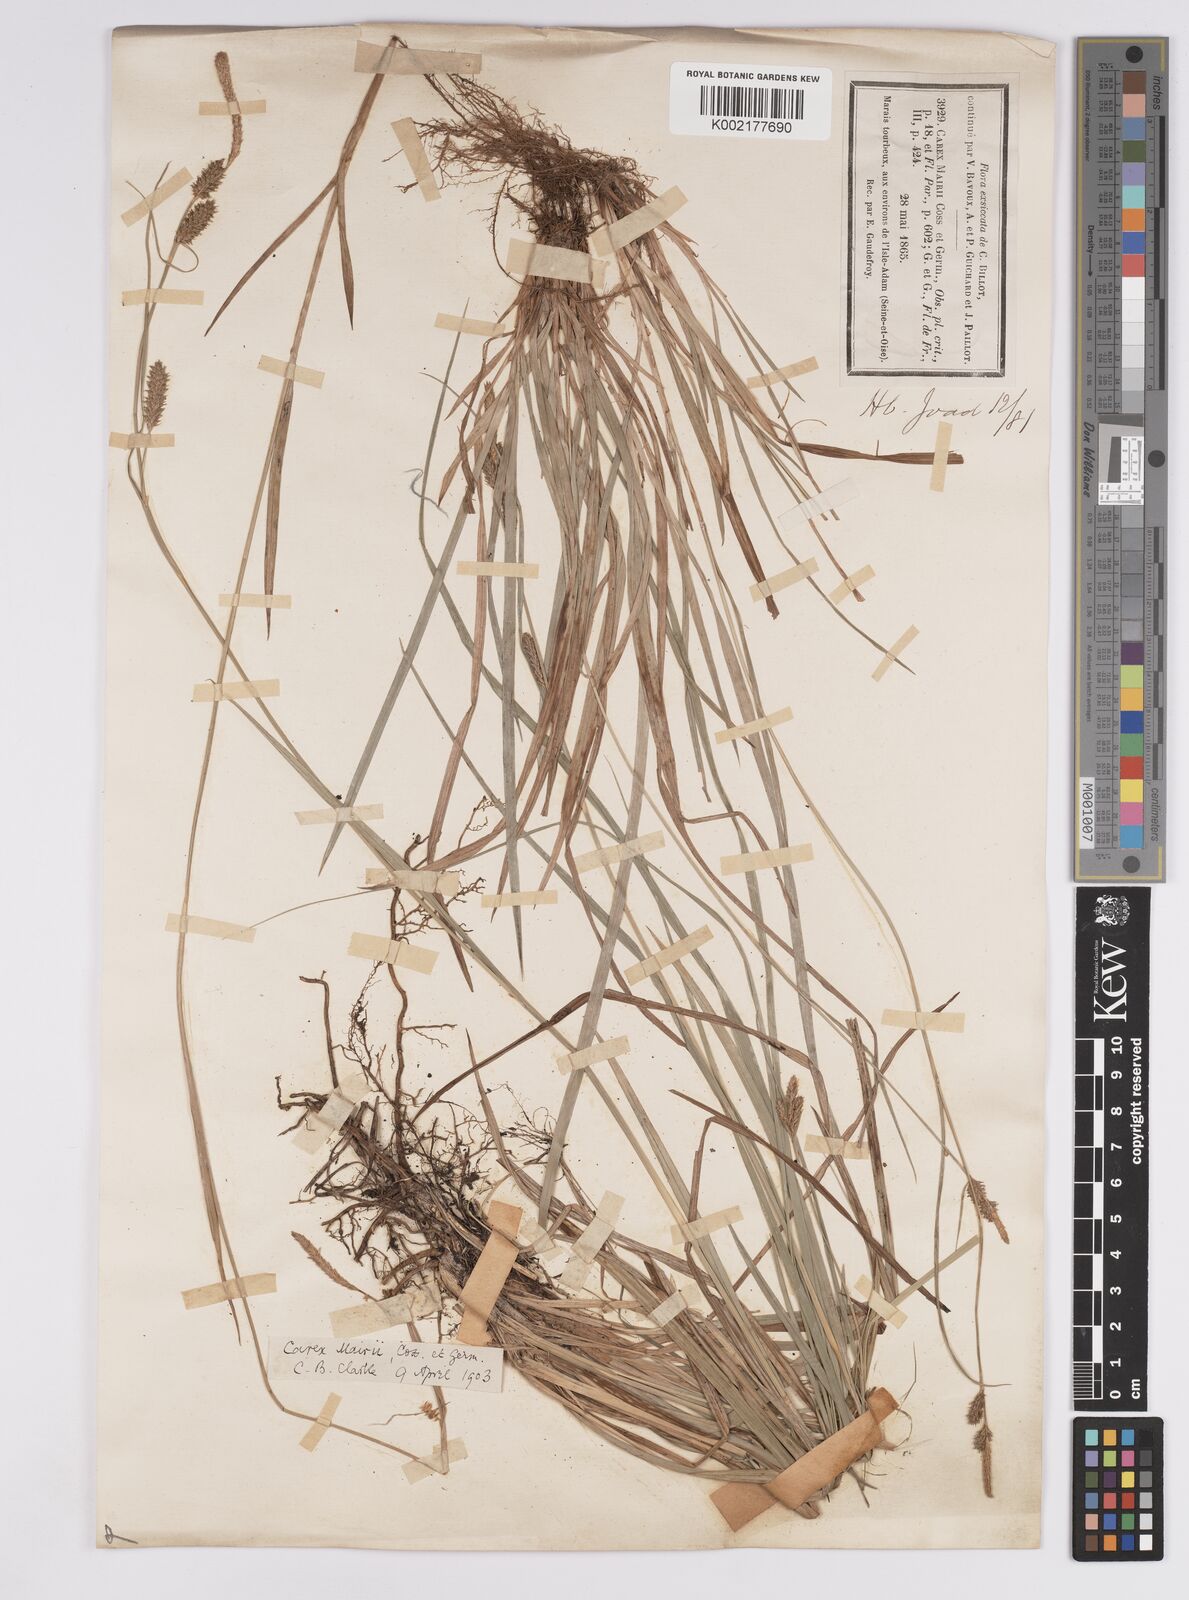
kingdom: Plantae
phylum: Tracheophyta
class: Liliopsida
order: Poales
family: Cyperaceae
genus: Carex
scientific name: Carex mairei
